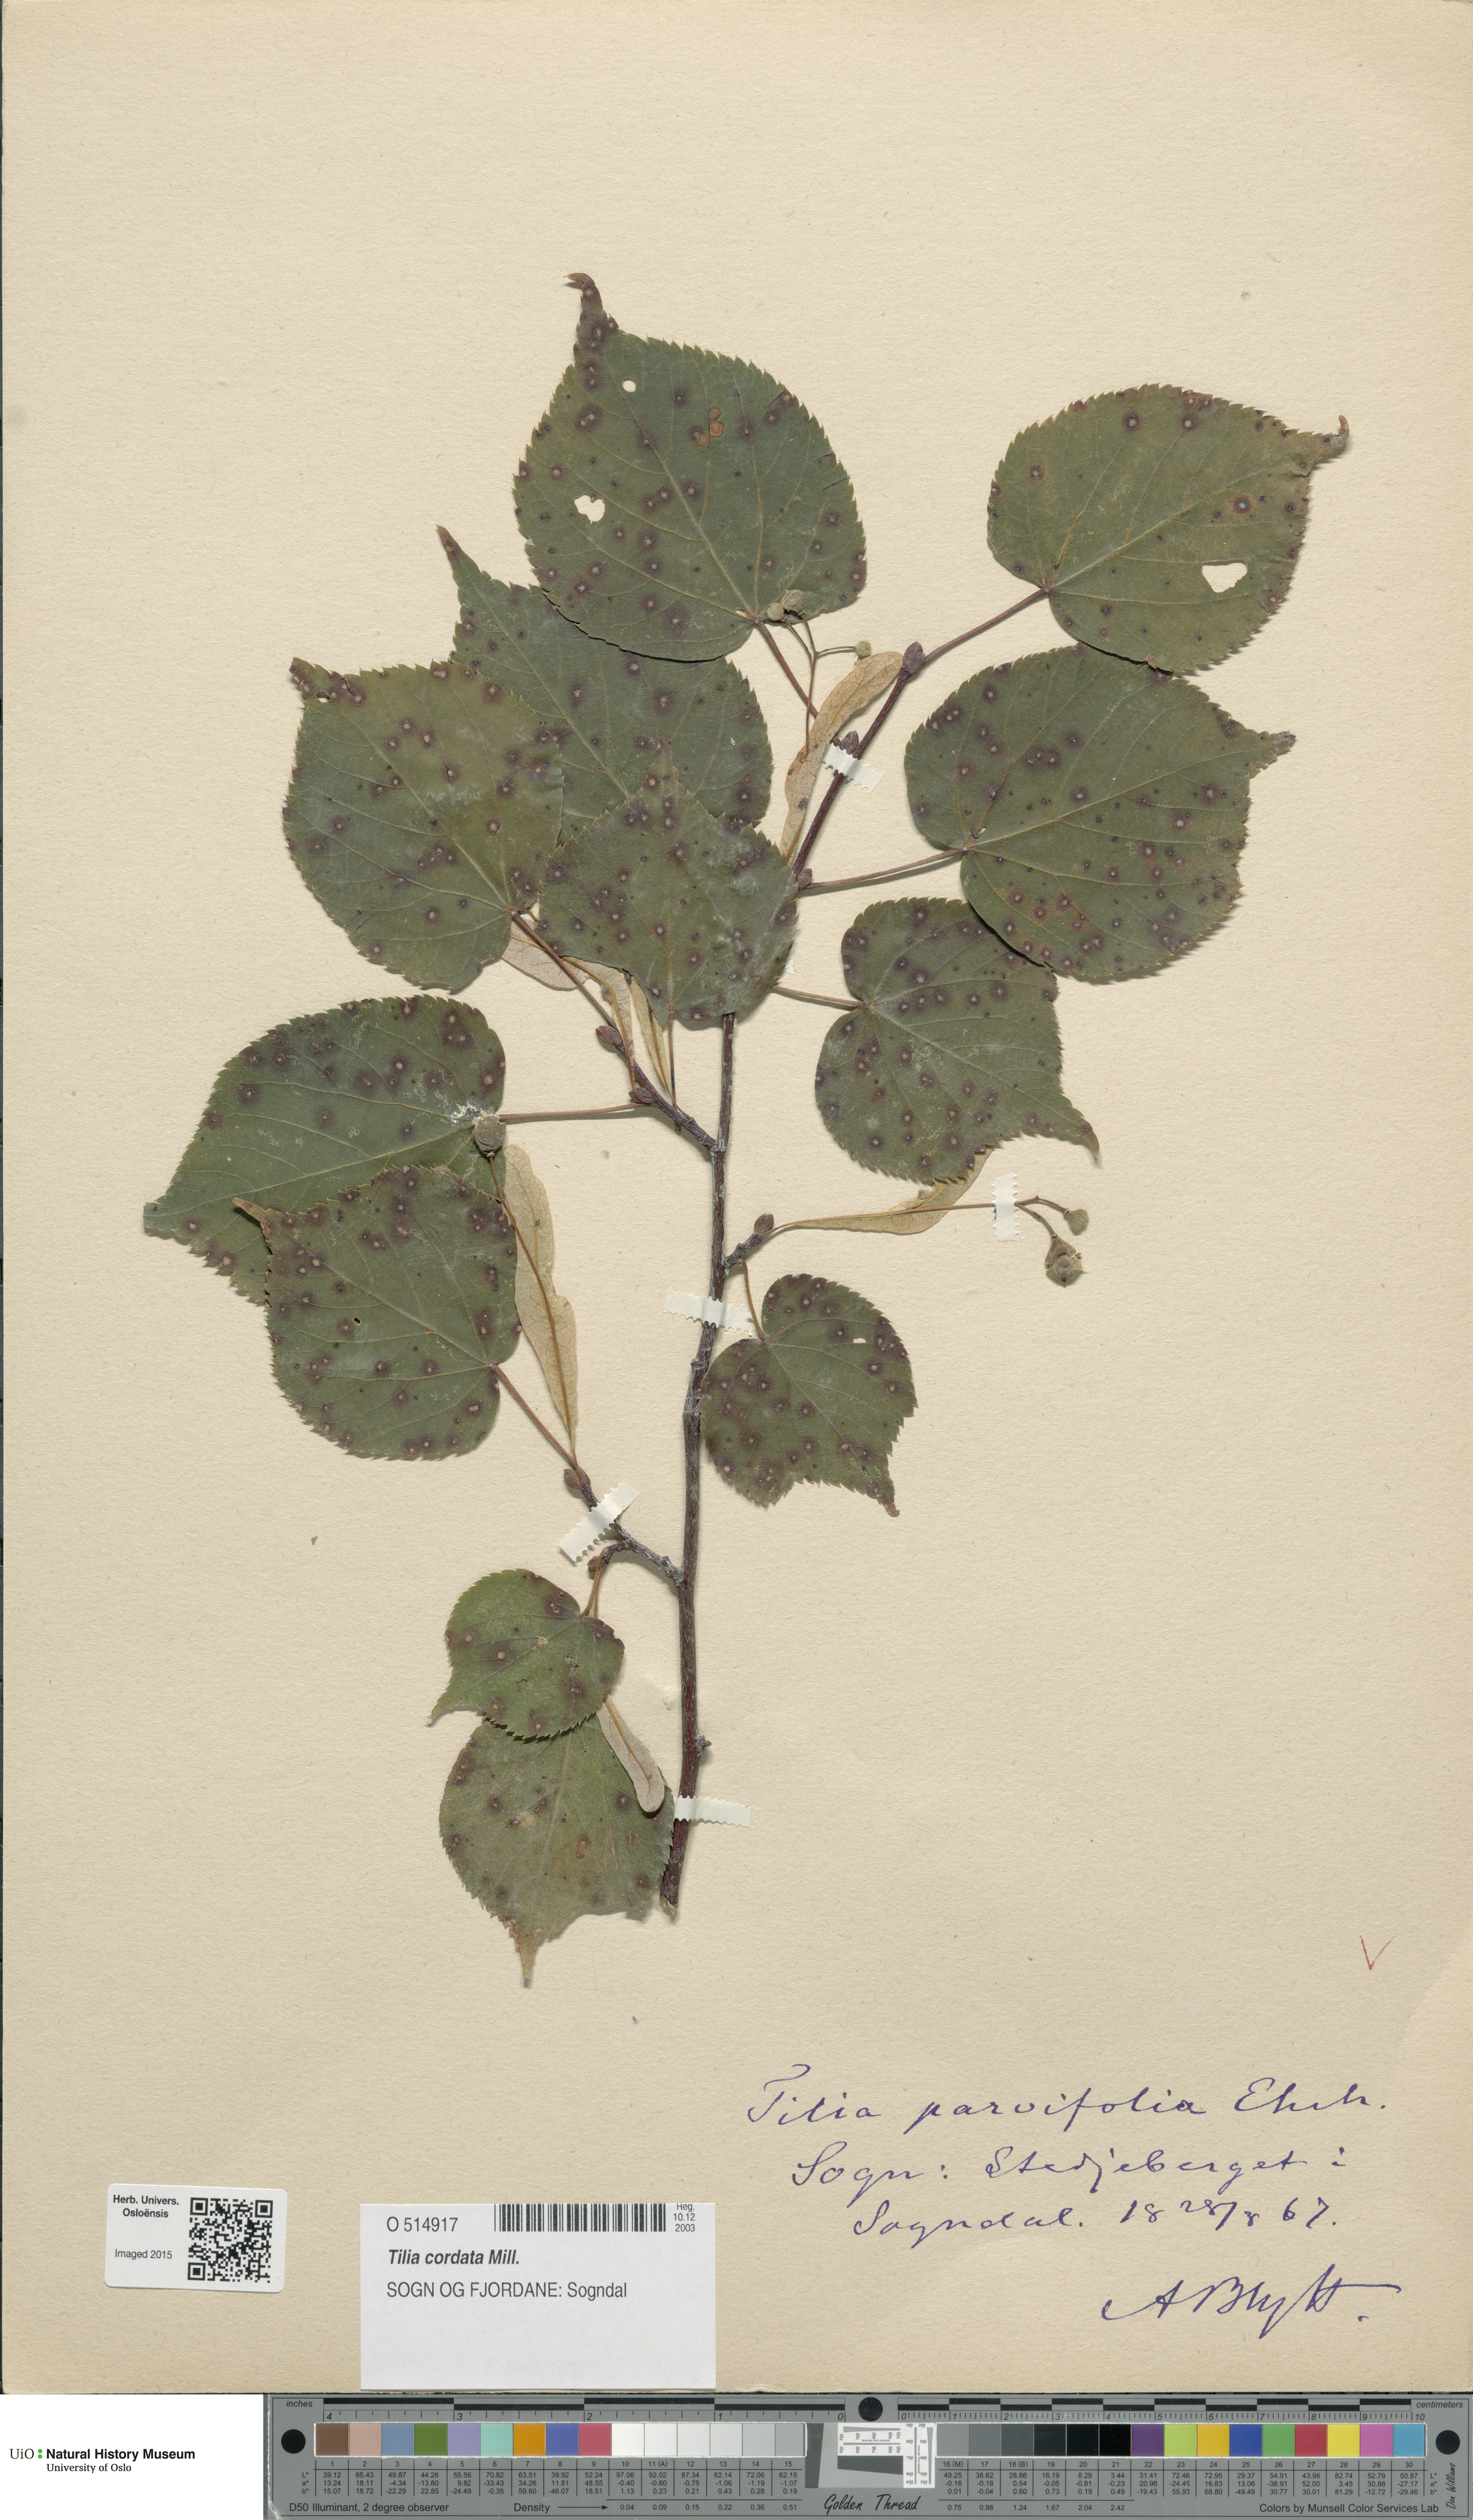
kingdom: Plantae
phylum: Tracheophyta
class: Magnoliopsida
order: Malvales
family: Malvaceae
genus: Tilia
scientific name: Tilia cordata
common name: Small-leaved lime
